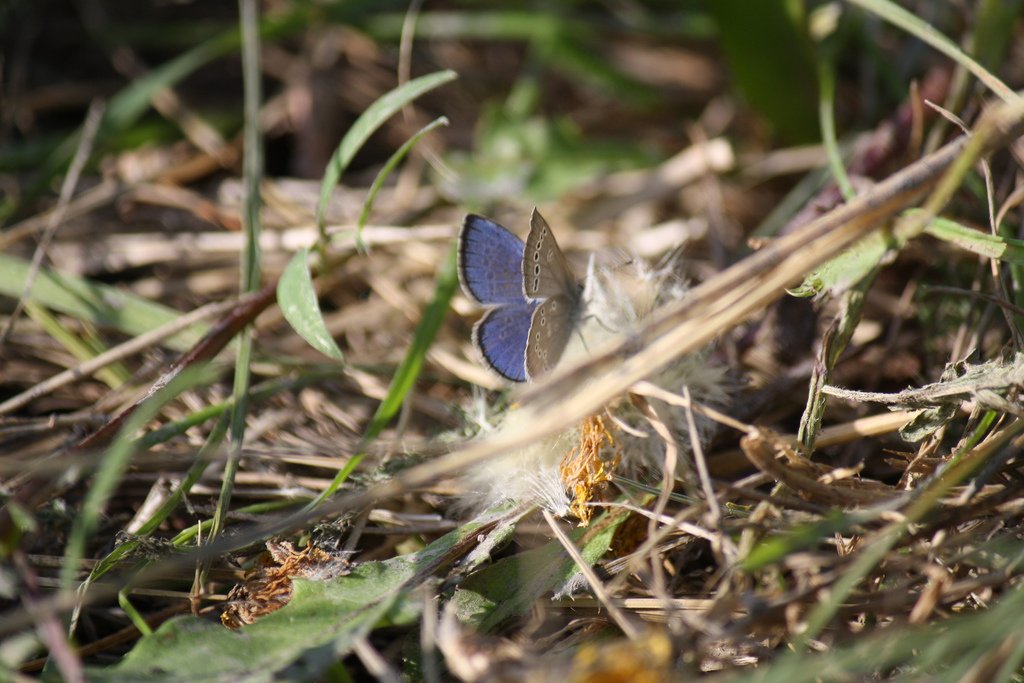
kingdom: Animalia
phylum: Arthropoda
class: Insecta
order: Lepidoptera
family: Lycaenidae
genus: Glaucopsyche
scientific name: Glaucopsyche lygdamus
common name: Silvery Blue
